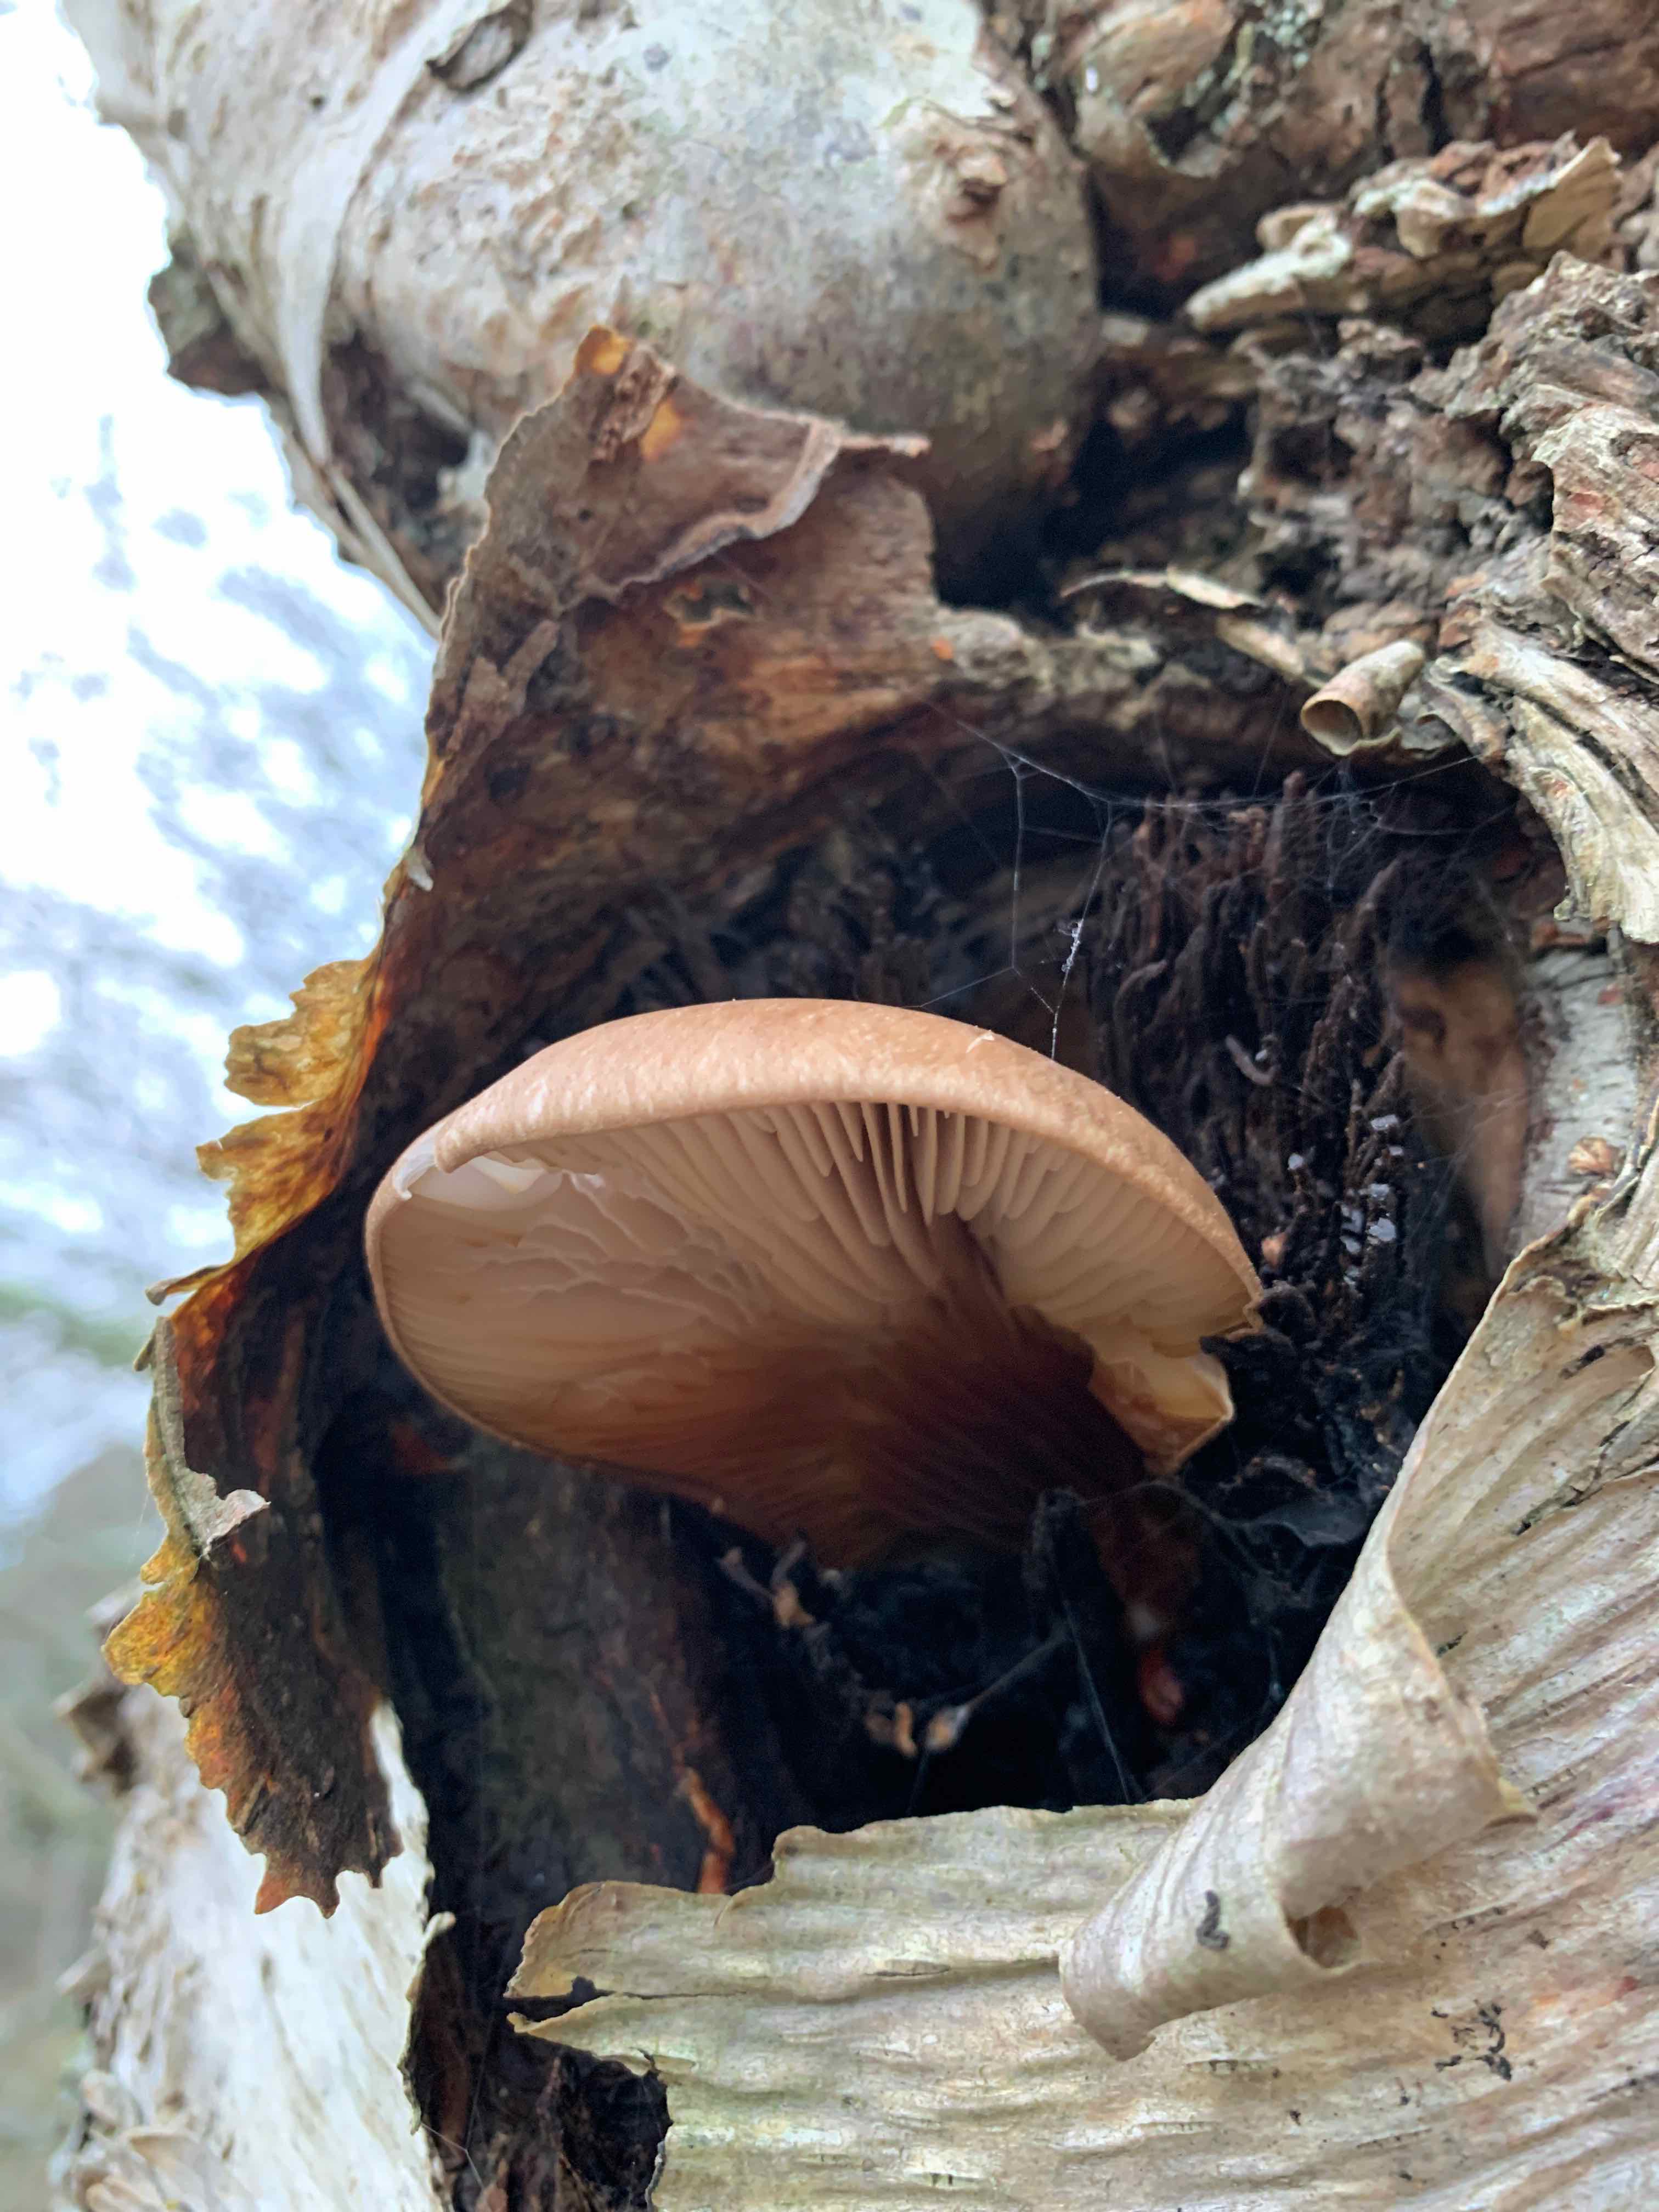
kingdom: Fungi
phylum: Basidiomycota
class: Agaricomycetes
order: Agaricales
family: Pleurotaceae
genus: Pleurotus
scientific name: Pleurotus ostreatus
